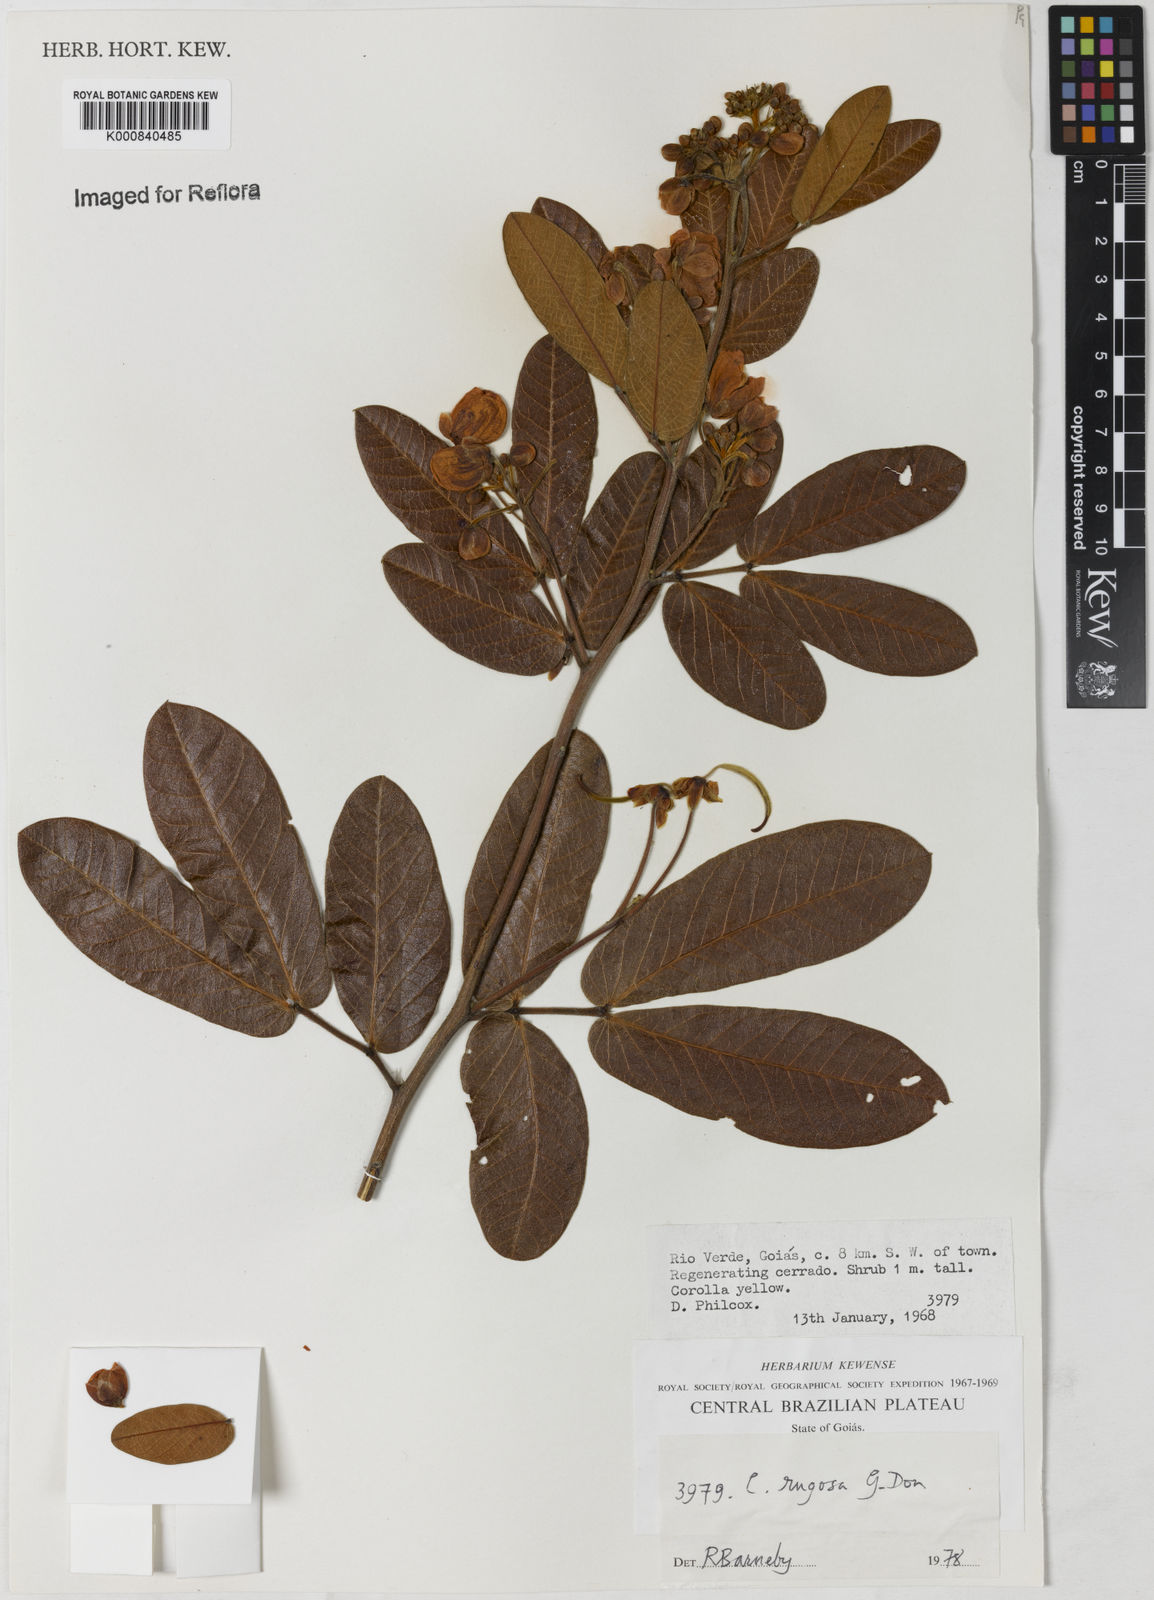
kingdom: Plantae
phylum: Tracheophyta
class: Magnoliopsida
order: Fabales
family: Fabaceae
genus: Senna
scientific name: Senna rugosa
